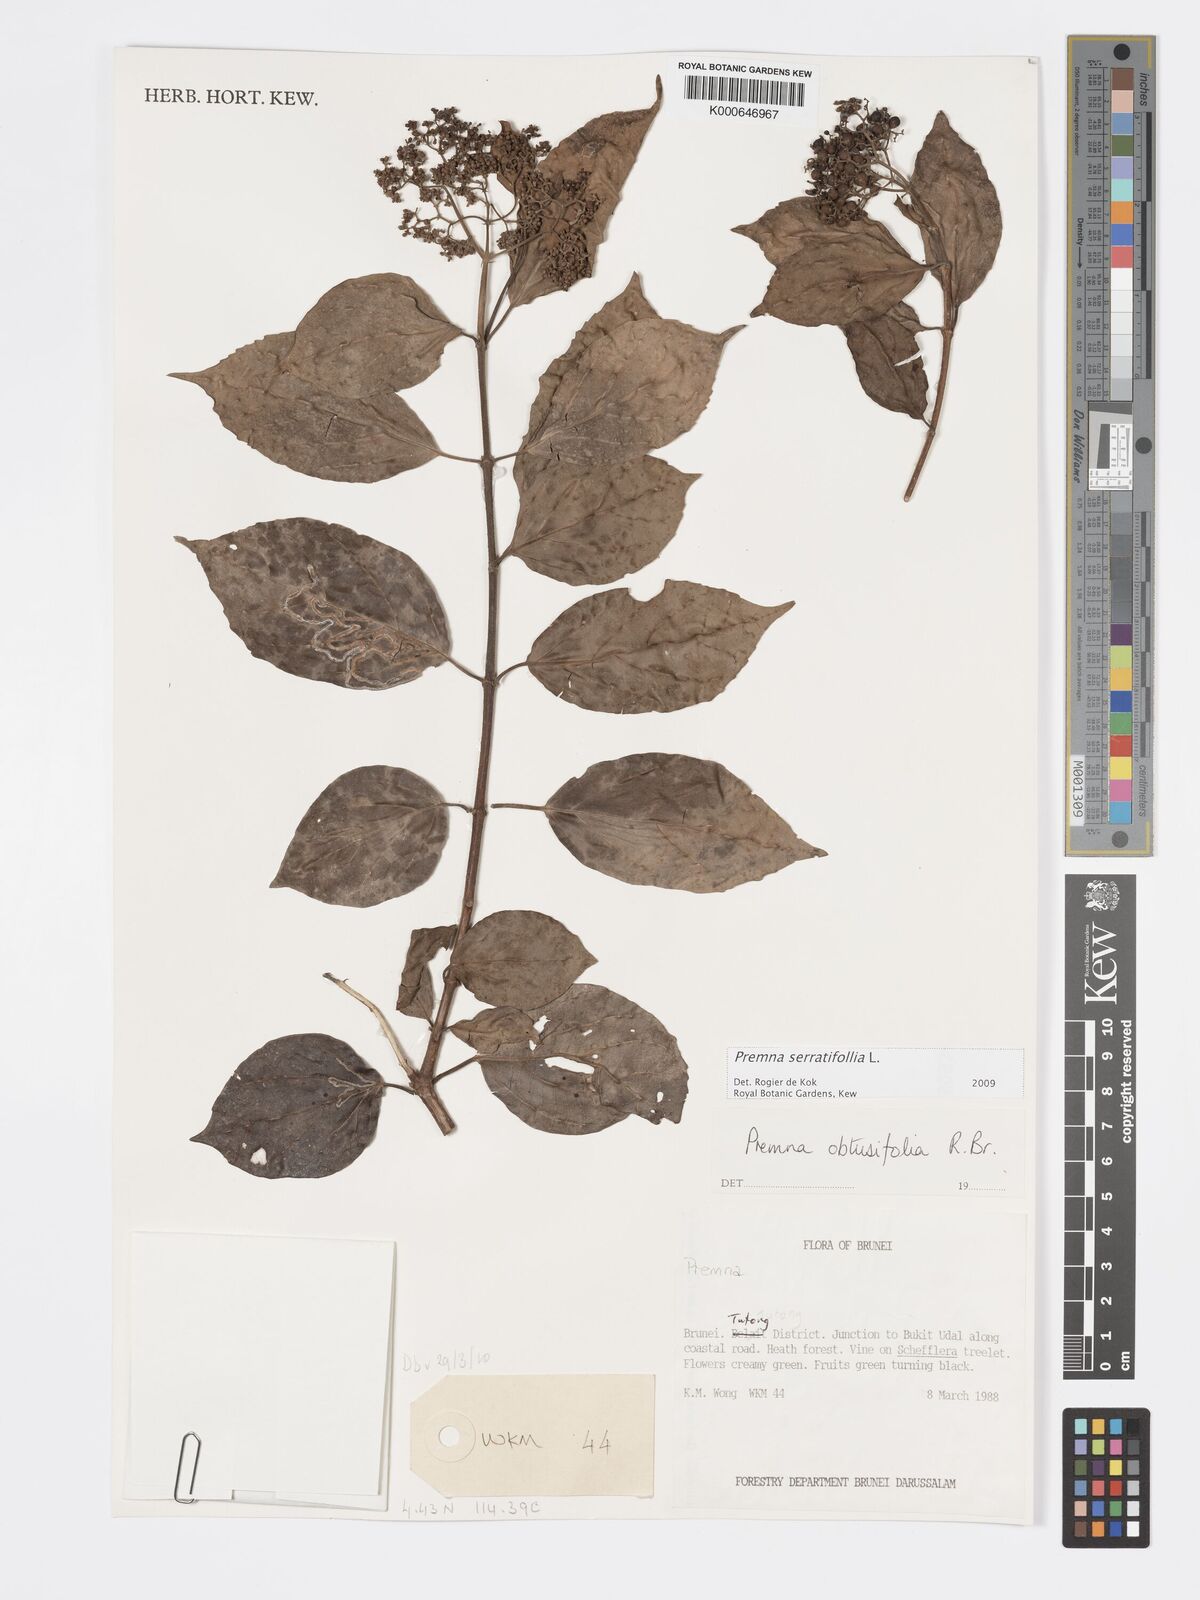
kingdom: Plantae
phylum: Tracheophyta
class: Magnoliopsida
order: Lamiales
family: Lamiaceae
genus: Premna
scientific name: Premna serratifolia
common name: Bastard guelder
